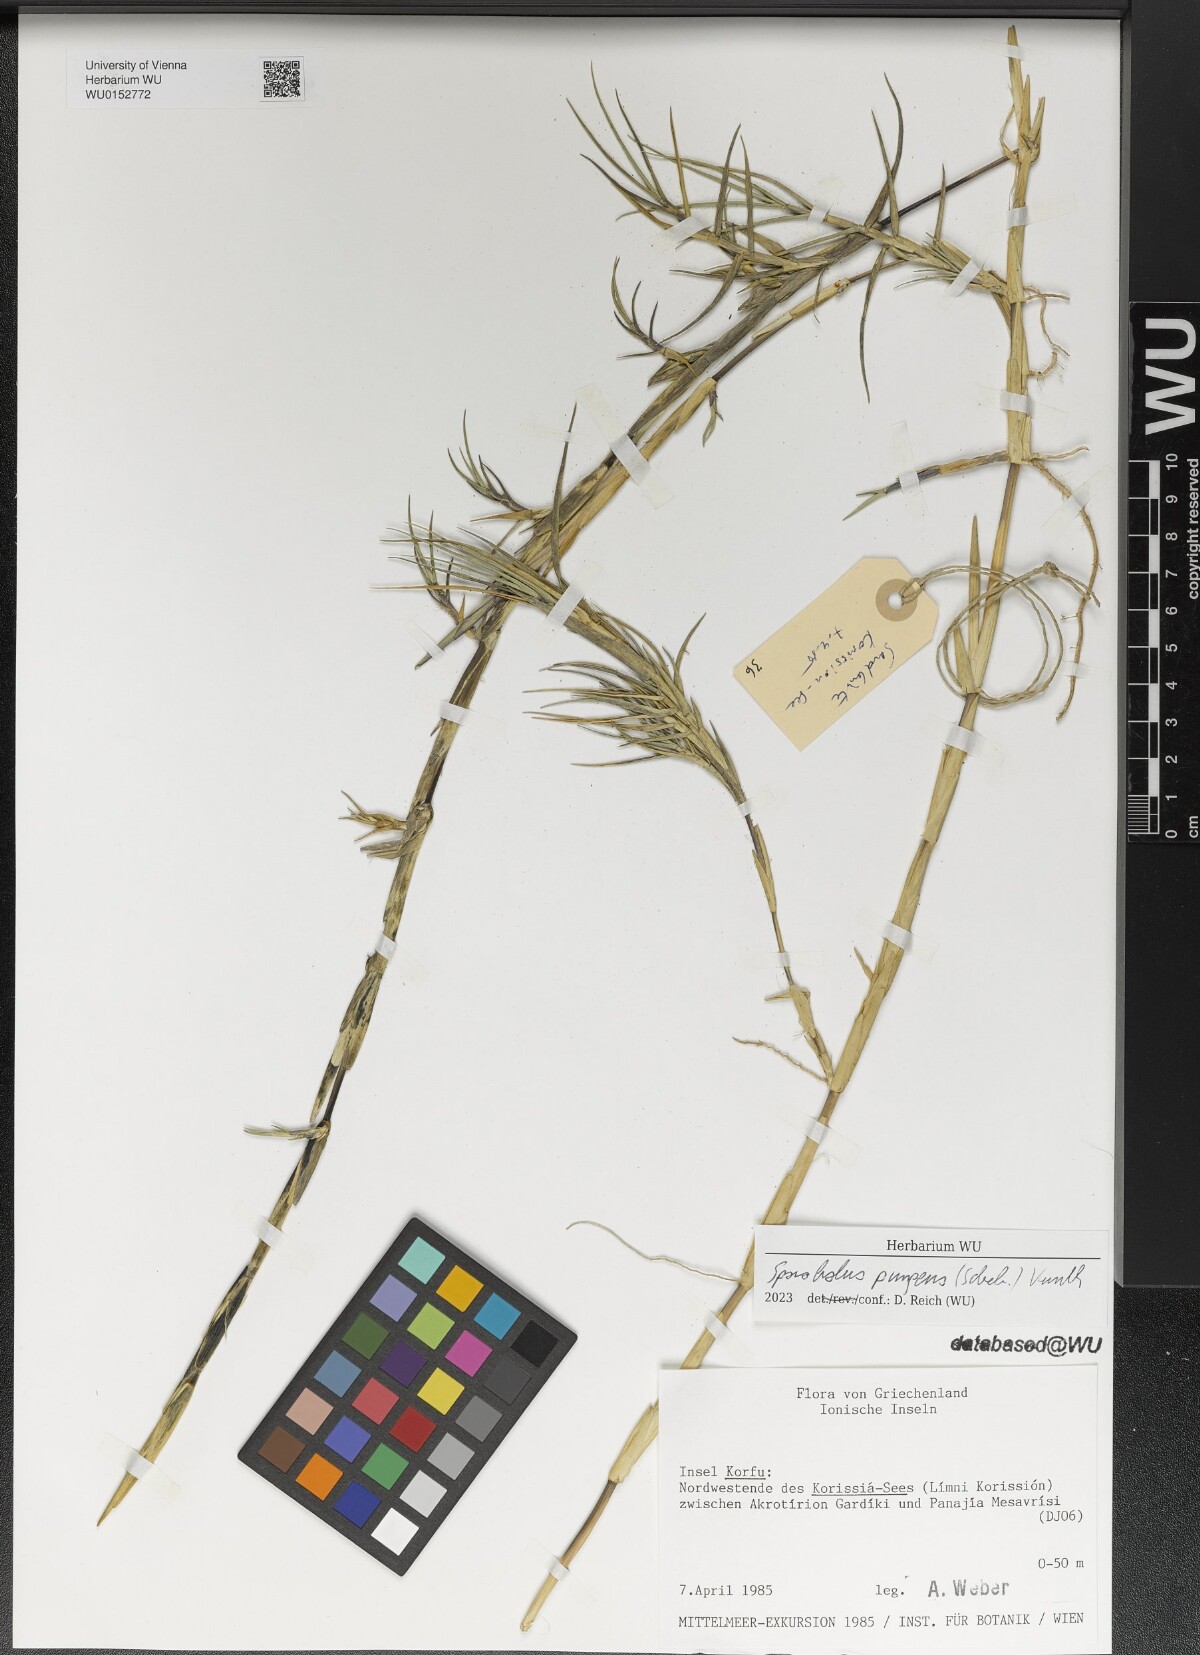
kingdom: Plantae
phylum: Tracheophyta
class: Liliopsida
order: Poales
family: Poaceae
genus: Sporobolus
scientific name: Sporobolus pungens
